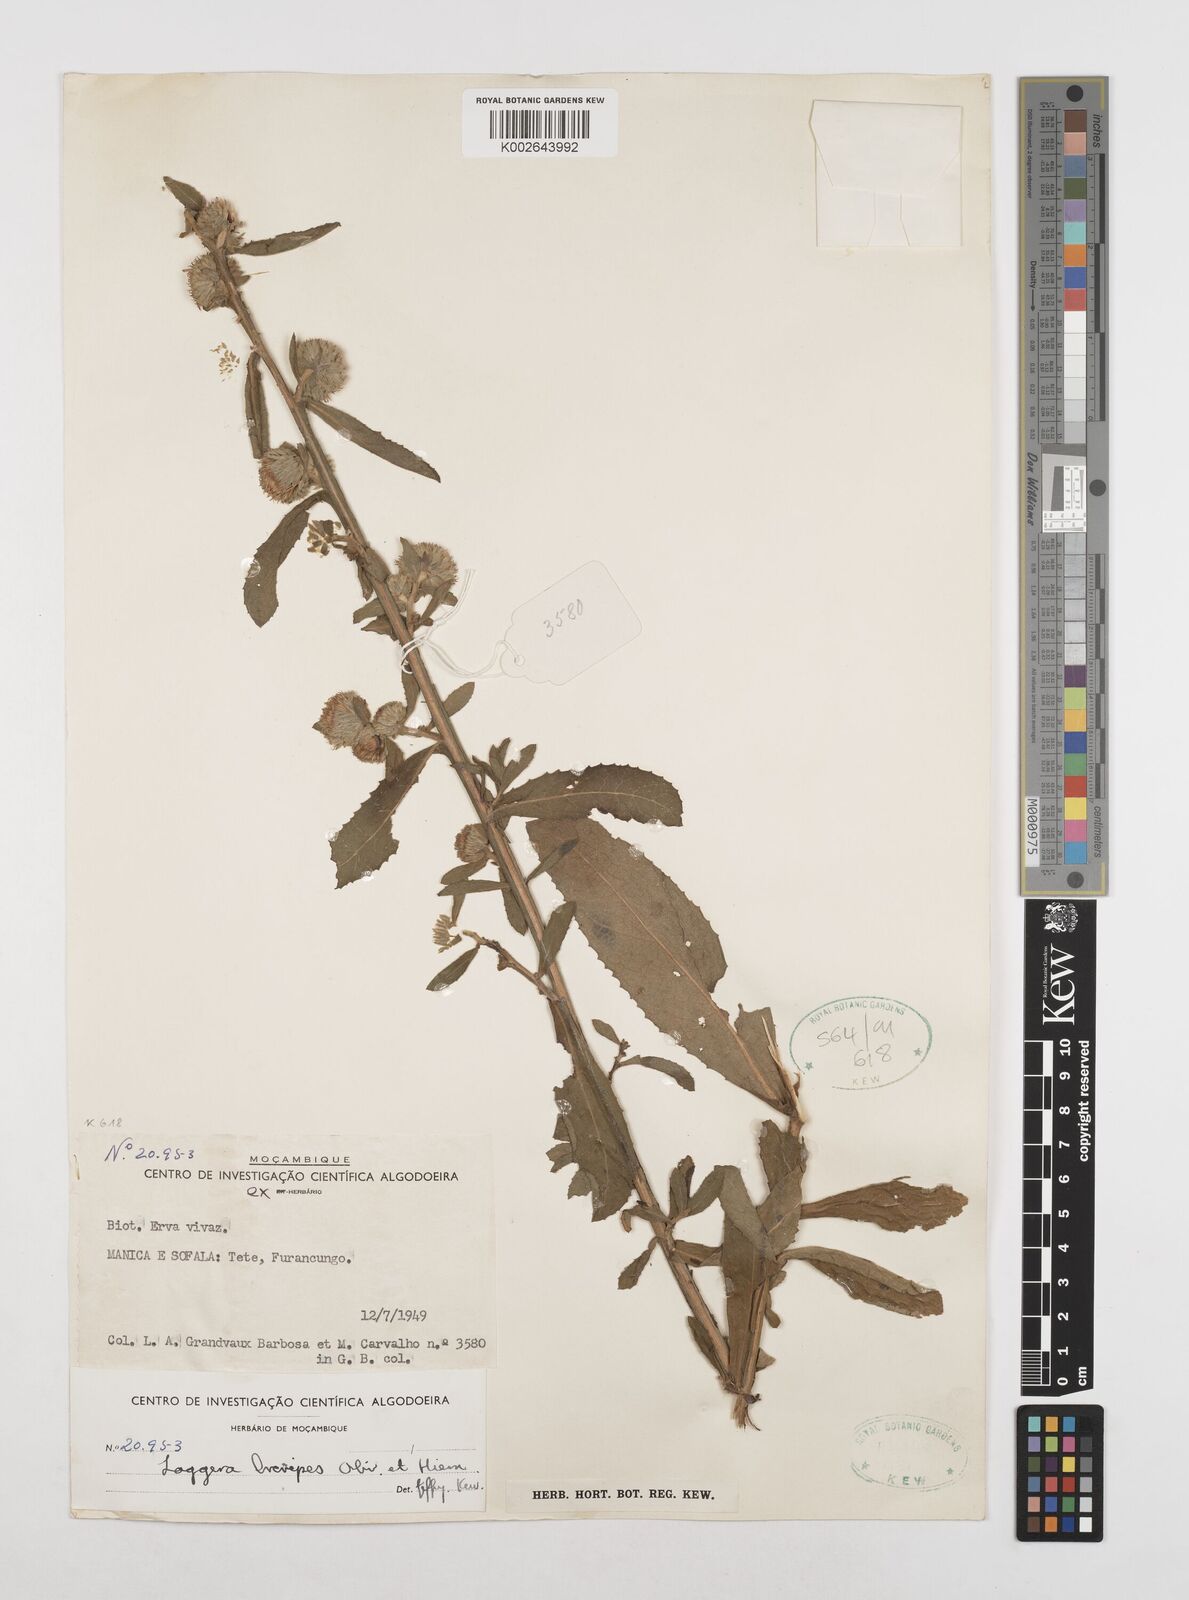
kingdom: Plantae
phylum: Tracheophyta
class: Magnoliopsida
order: Asterales
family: Asteraceae
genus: Laggera
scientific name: Laggera brevipes
